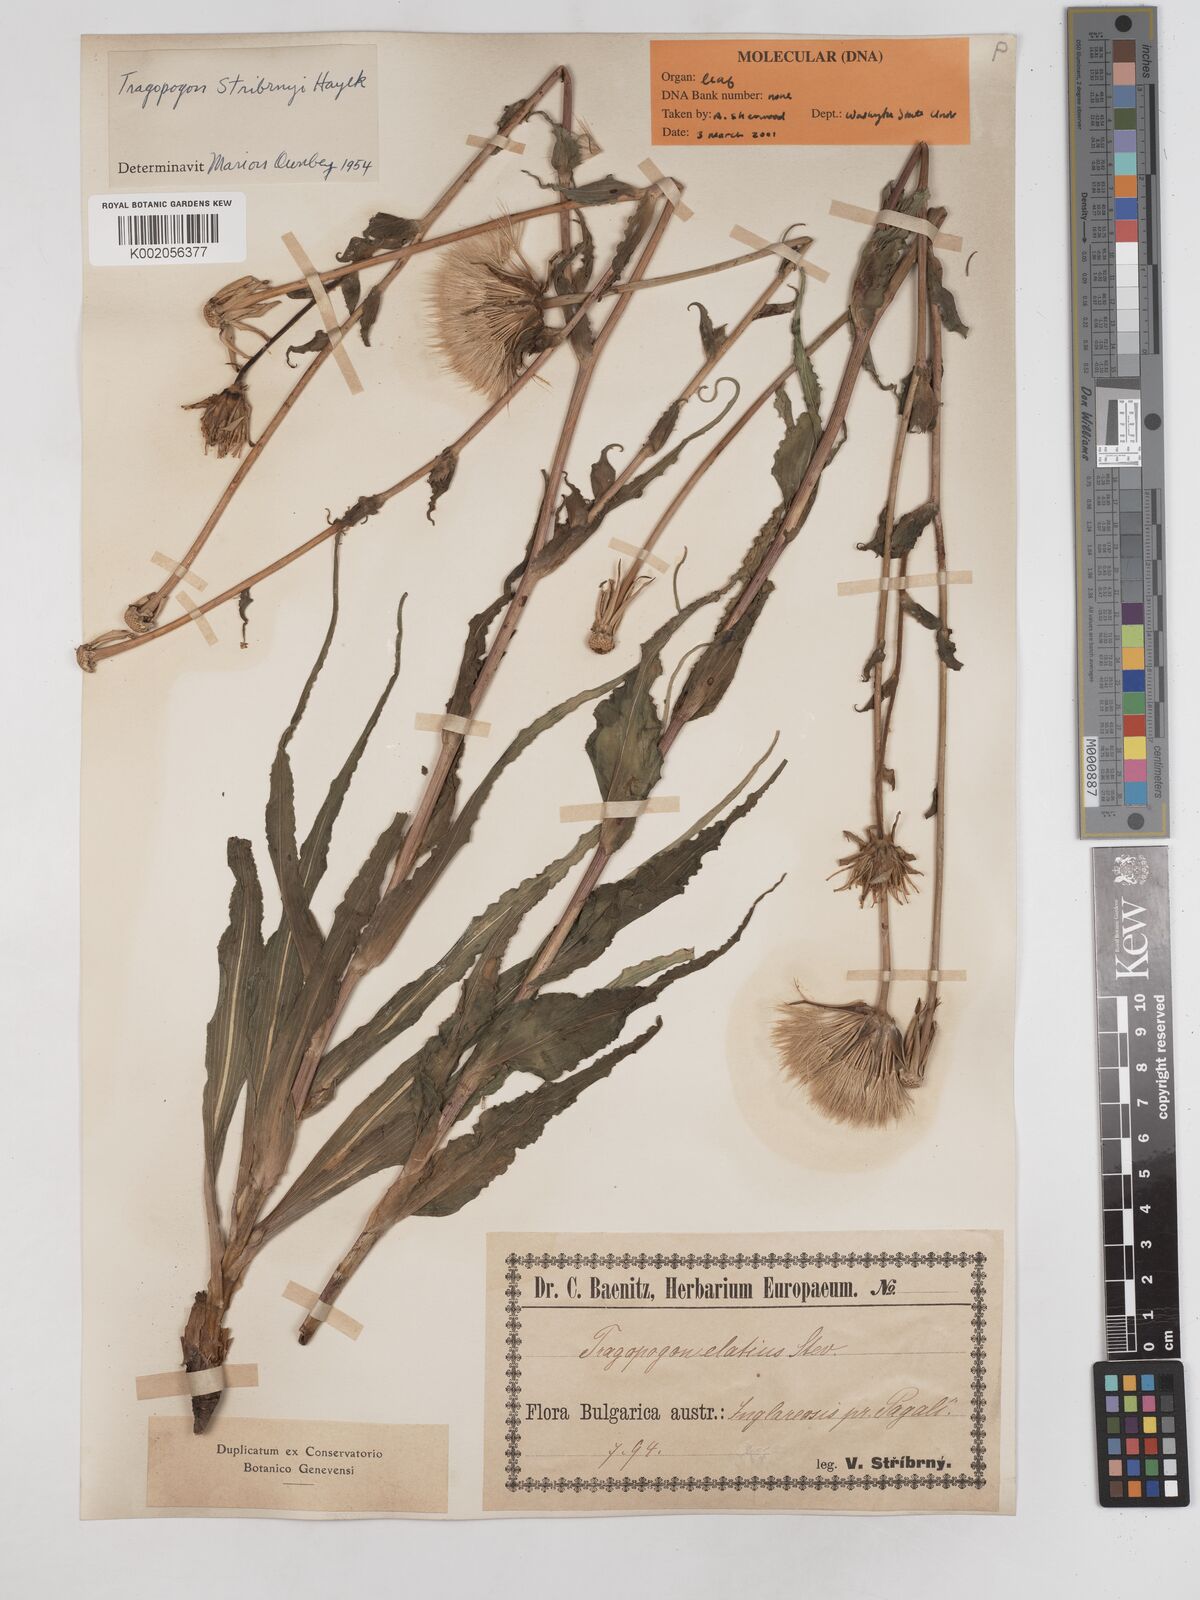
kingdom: Plantae
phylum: Tracheophyta
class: Magnoliopsida
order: Asterales
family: Asteraceae
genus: Tragopogon
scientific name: Tragopogon dubius
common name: Yellow salsify
